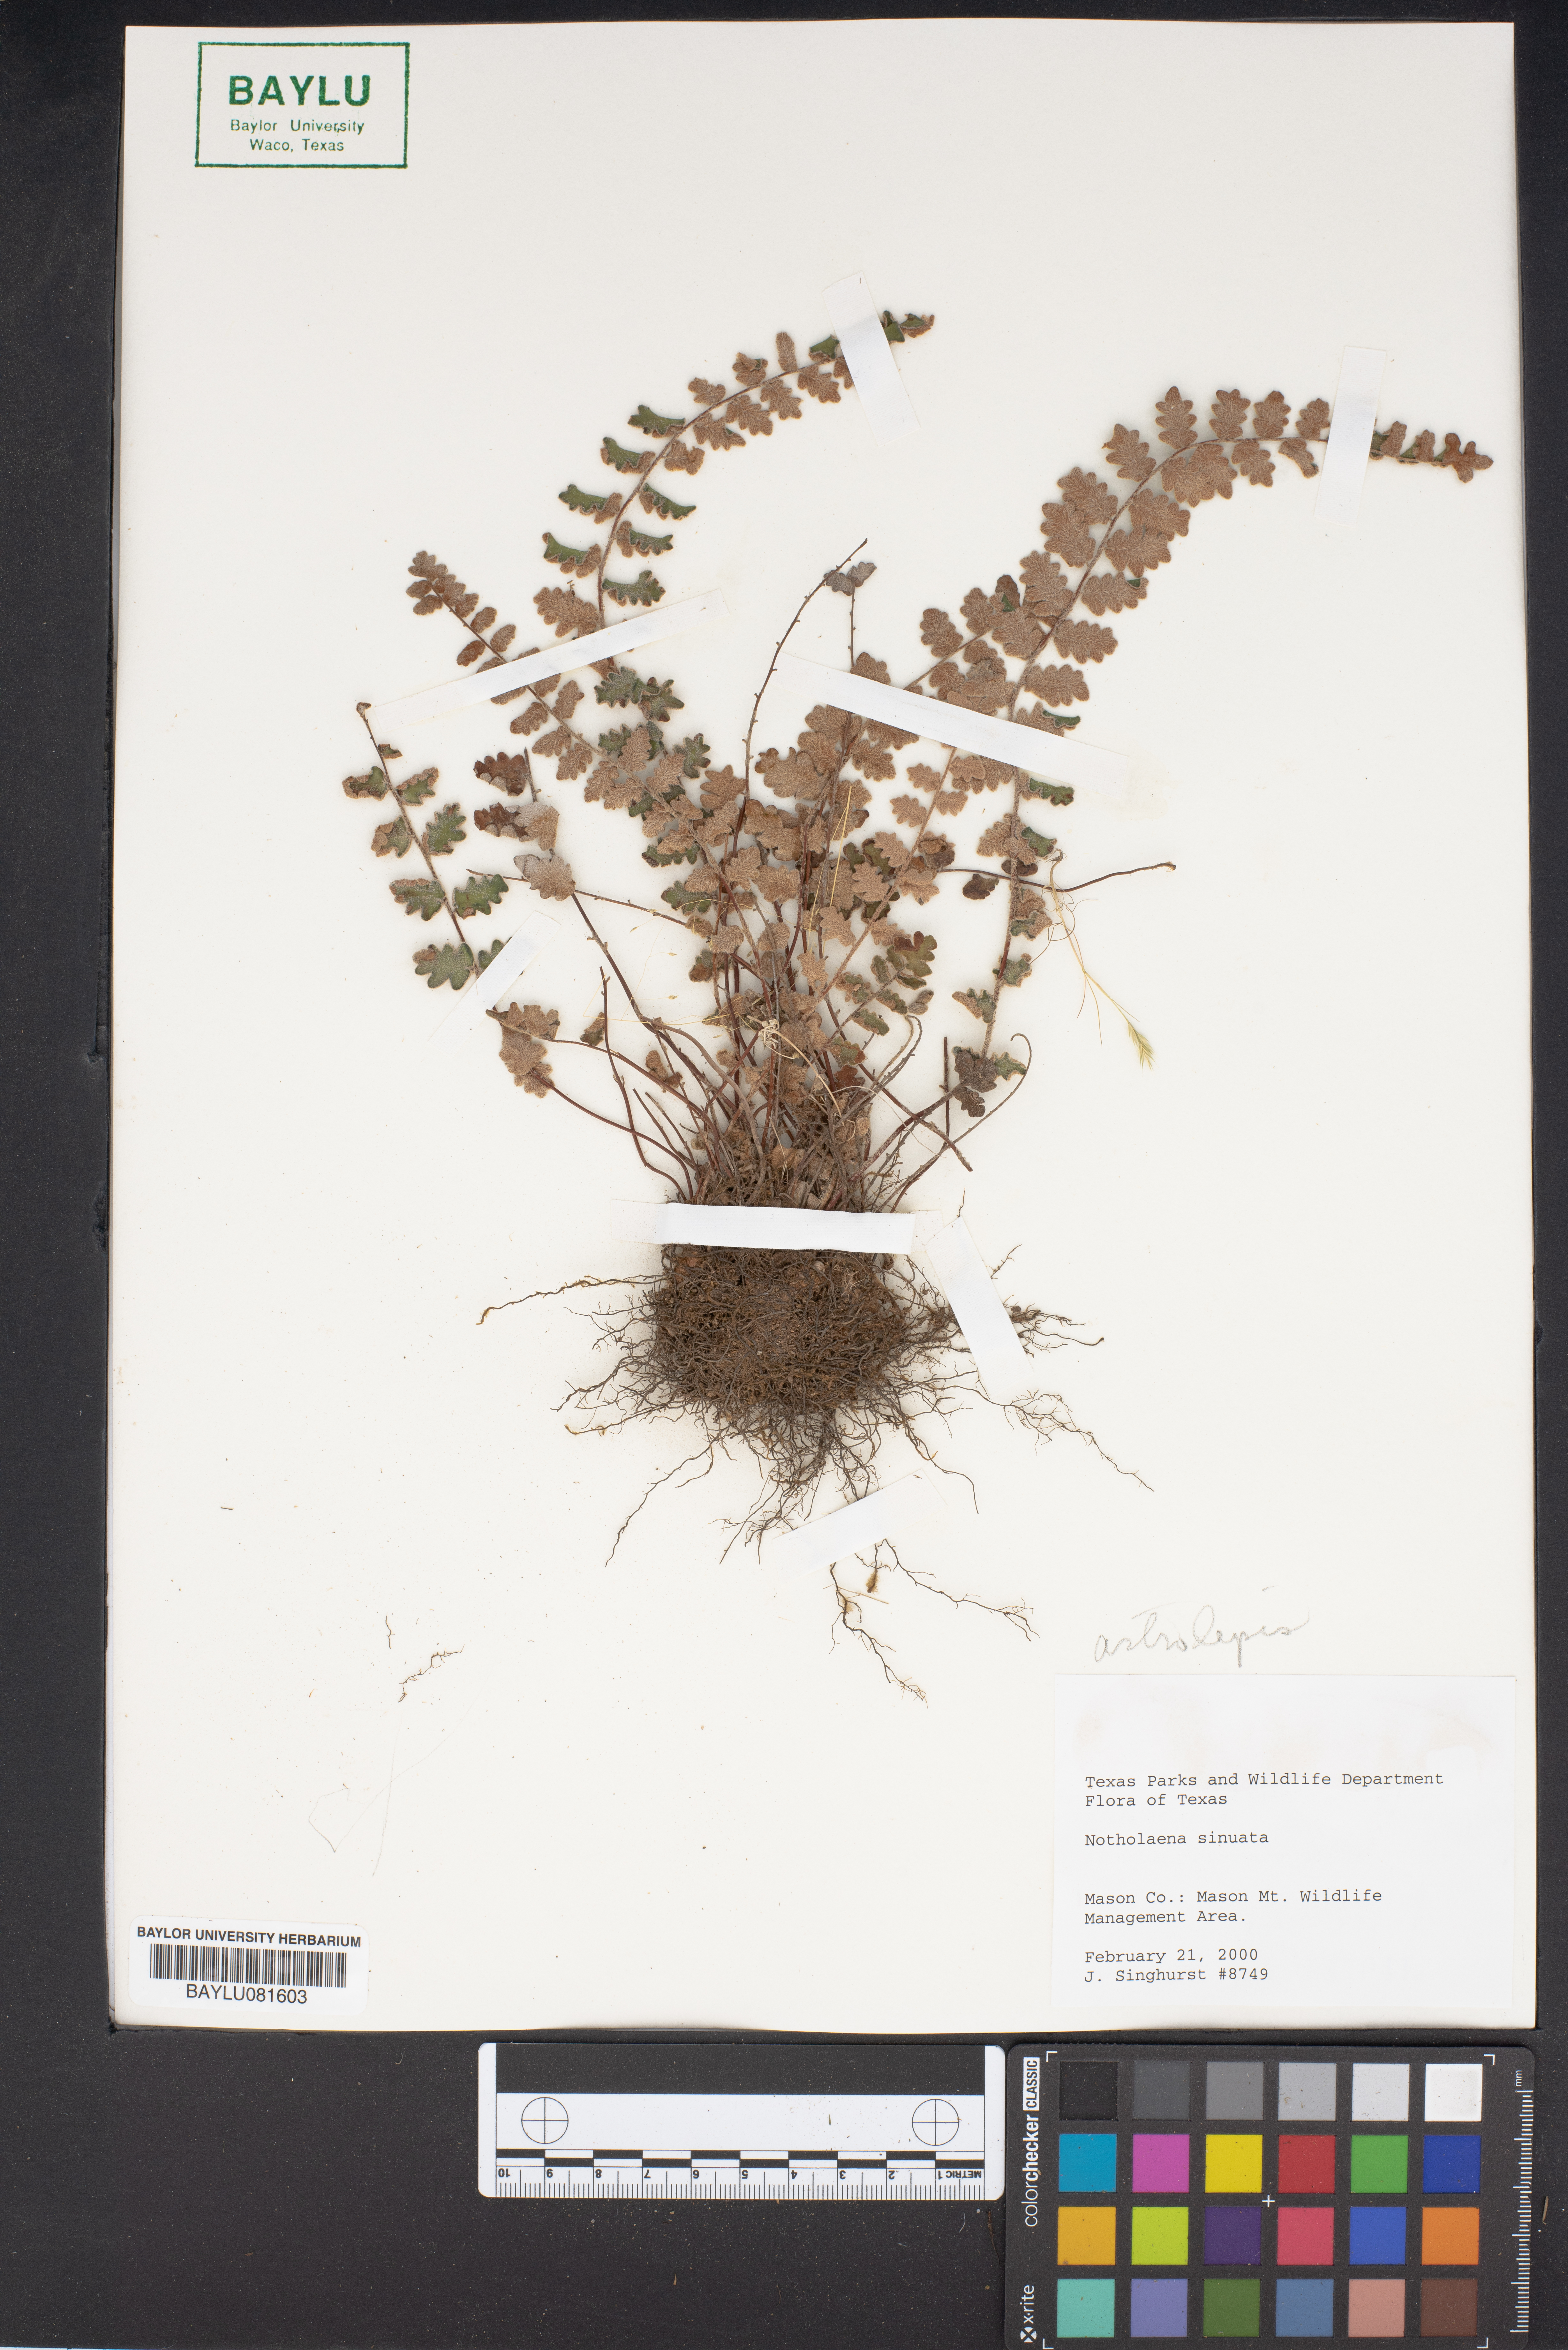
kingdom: Plantae
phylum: Tracheophyta
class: Polypodiopsida
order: Polypodiales
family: Pteridaceae
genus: Astrolepis
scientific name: Astrolepis sinuata
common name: Wavy scaly cloakfern
